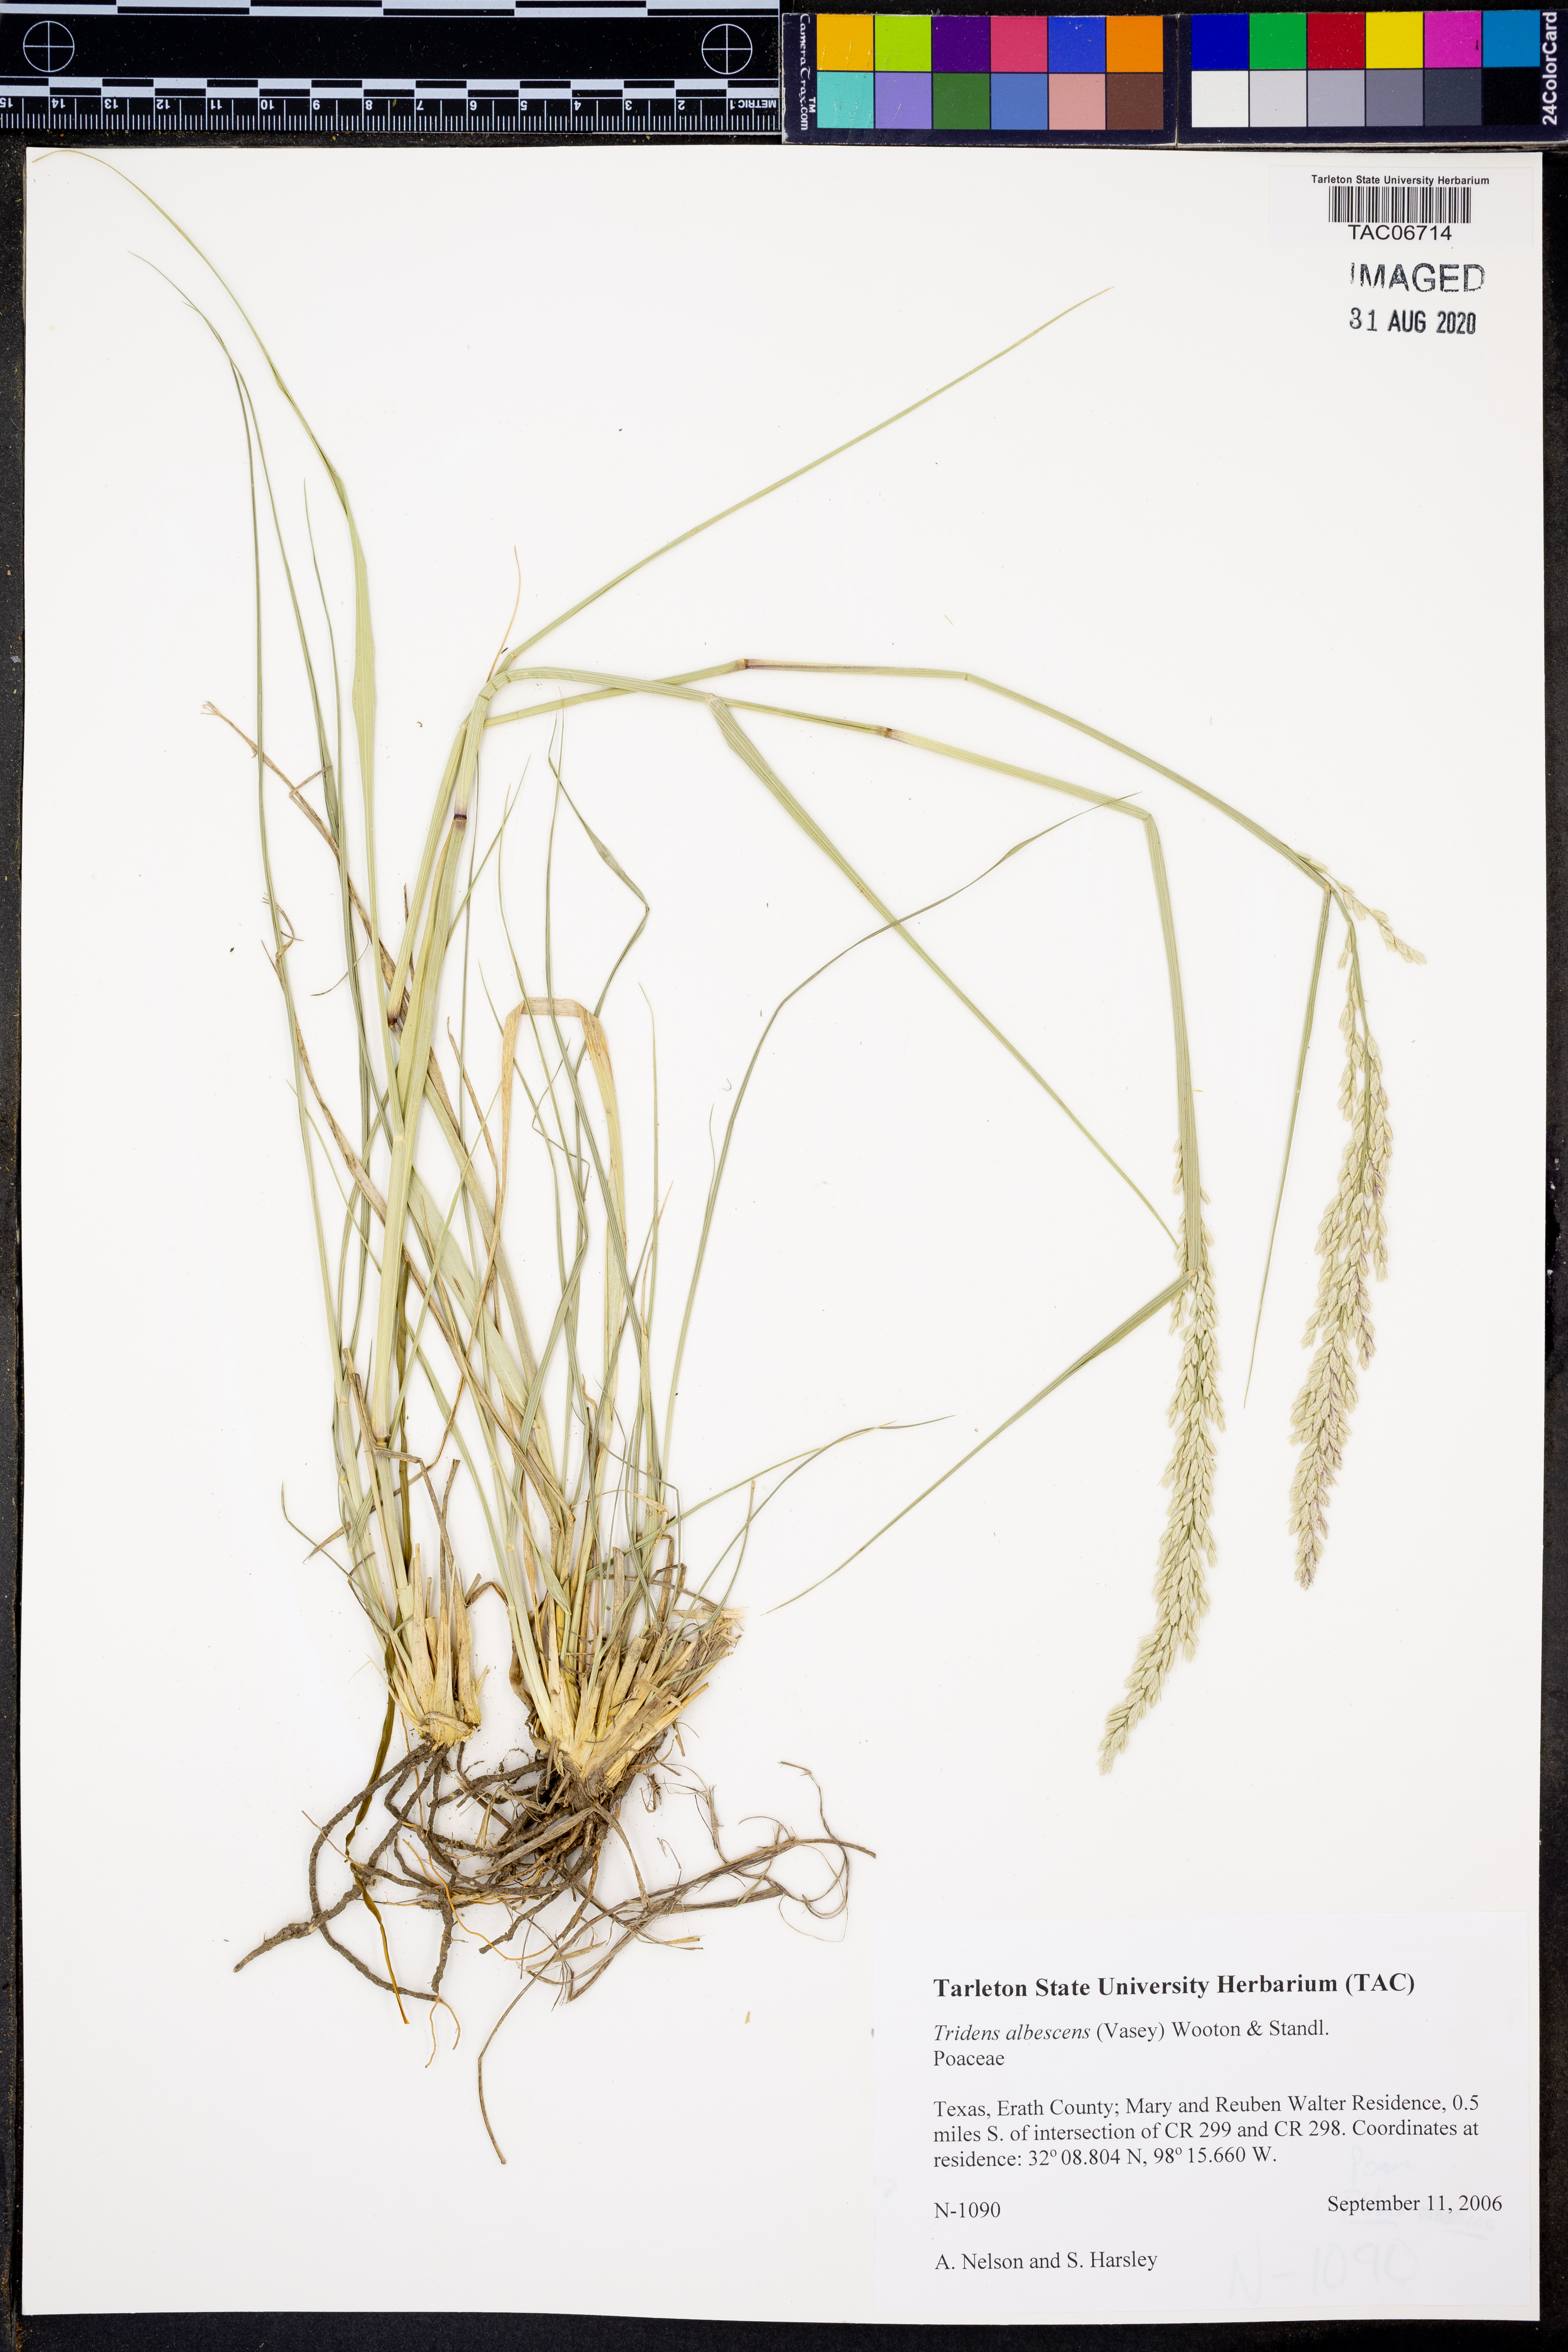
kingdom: Plantae
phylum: Tracheophyta
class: Liliopsida
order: Poales
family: Poaceae
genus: Tridens
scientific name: Tridens albescens
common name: White tridens
